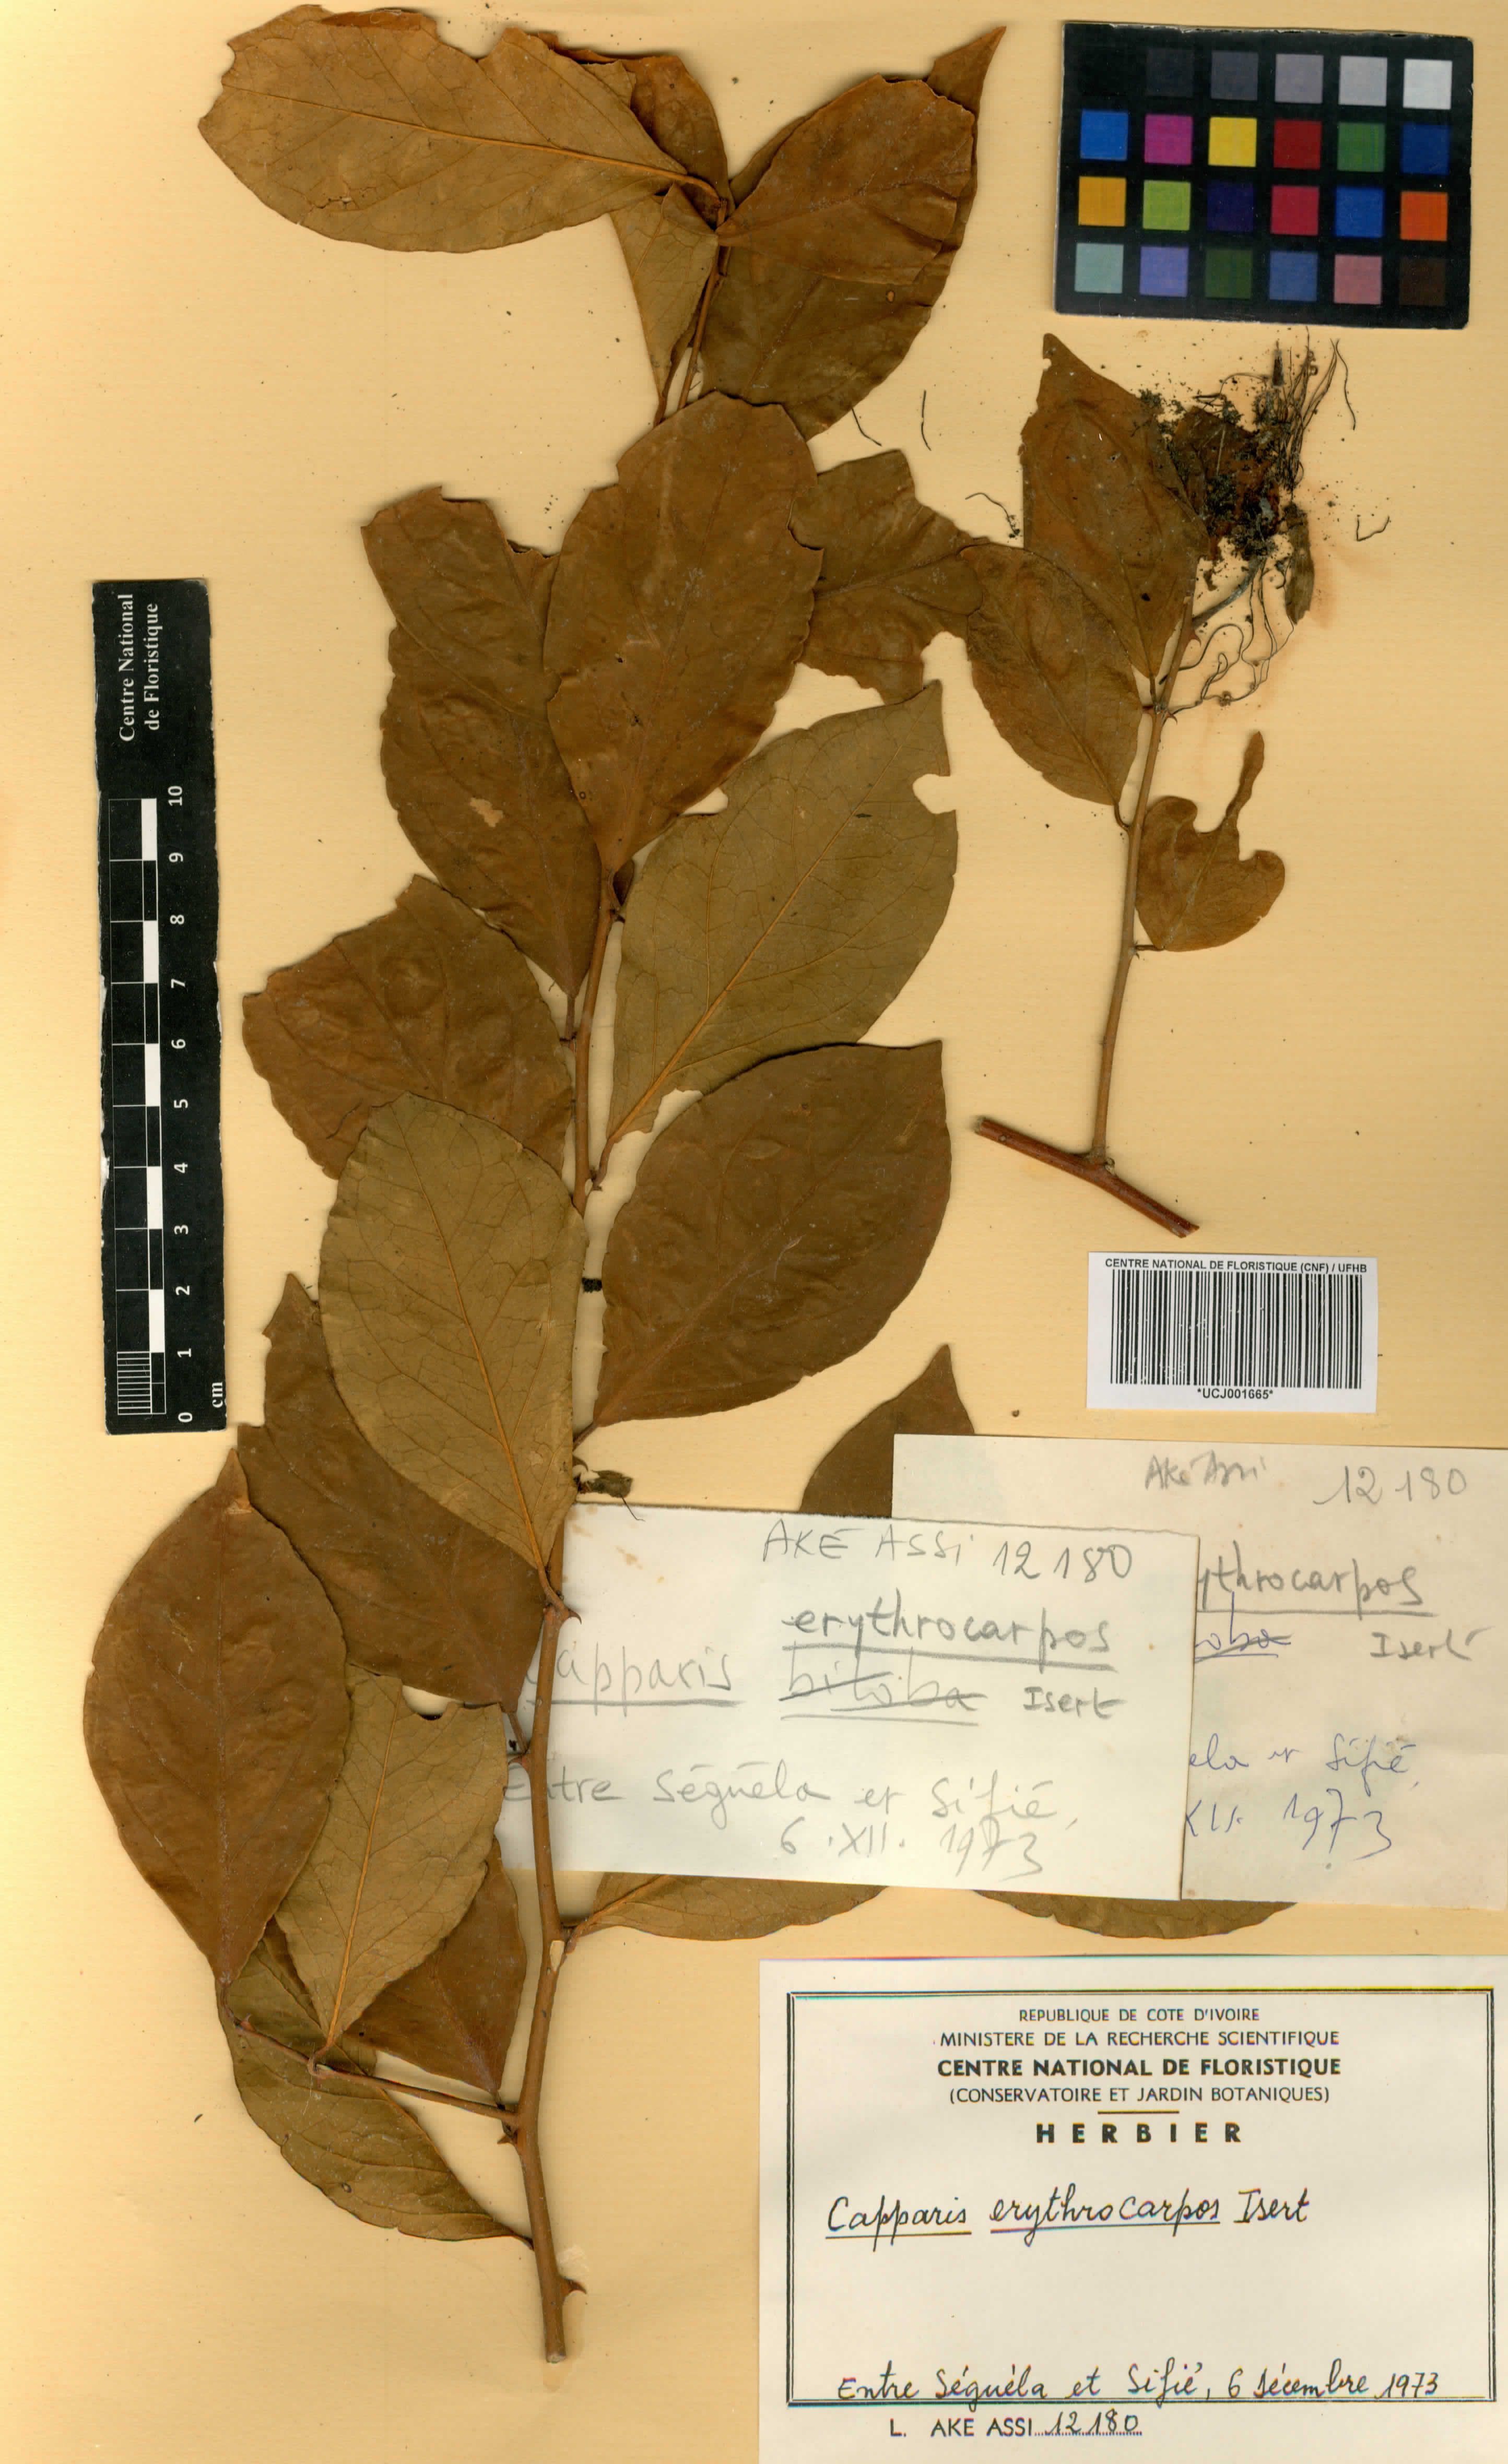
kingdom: Plantae
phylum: Tracheophyta
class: Magnoliopsida
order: Brassicales
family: Capparaceae
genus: Capparis
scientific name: Capparis erythrocarpos
